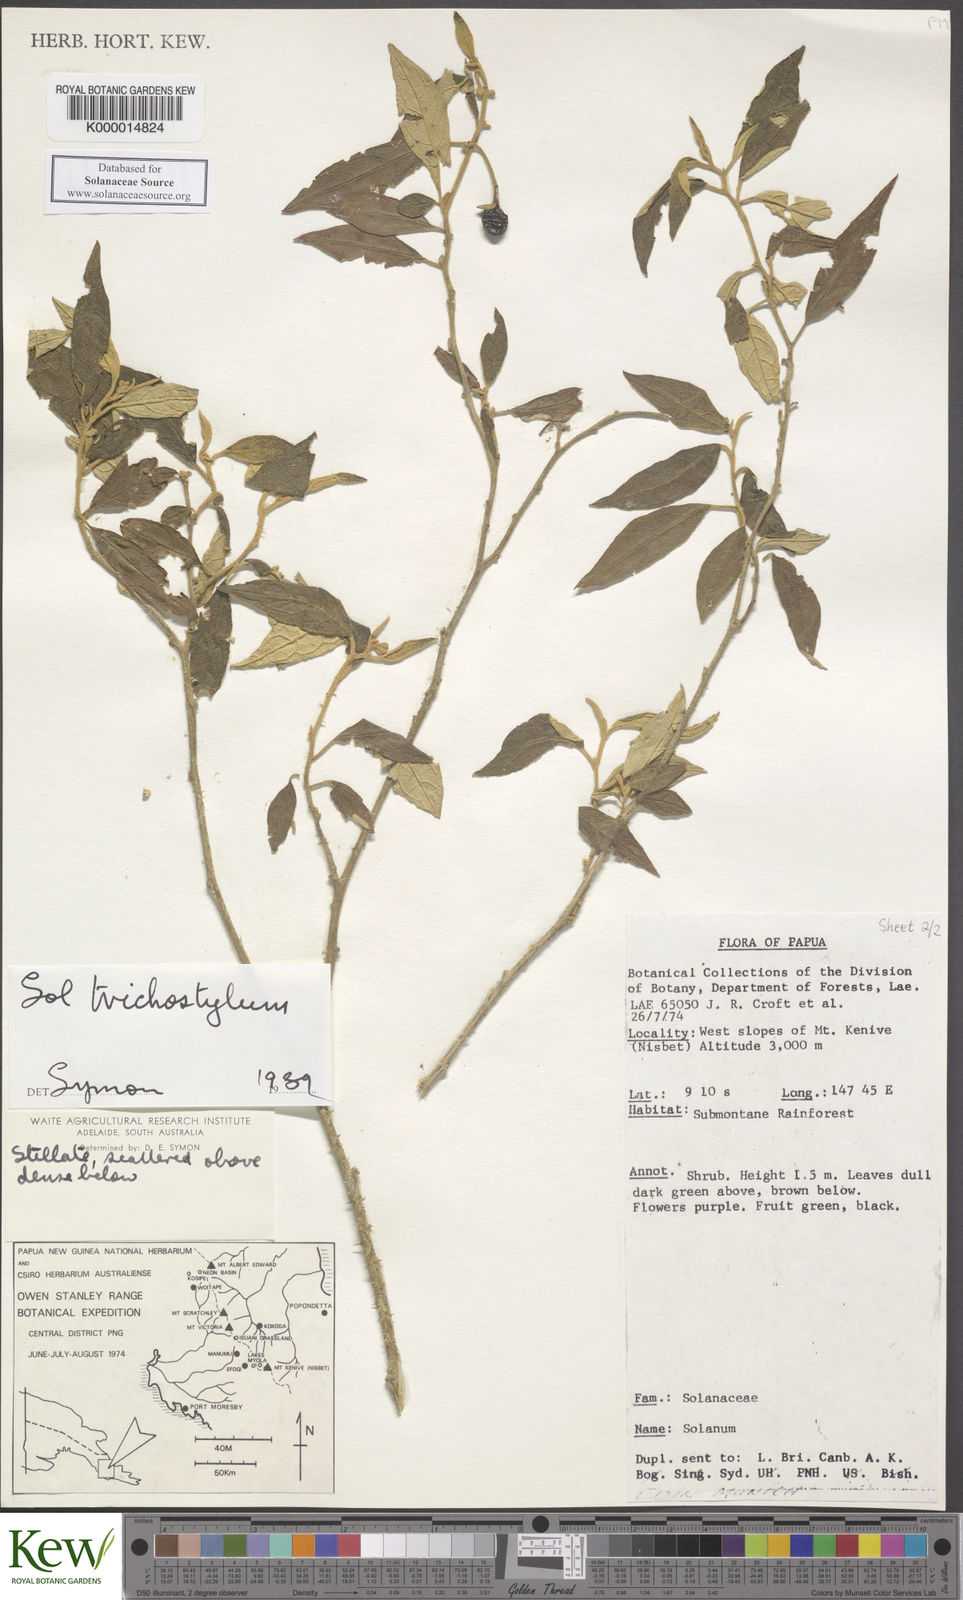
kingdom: Plantae
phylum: Tracheophyta
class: Magnoliopsida
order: Solanales
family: Solanaceae
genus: Solanum
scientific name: Solanum trichostylum
